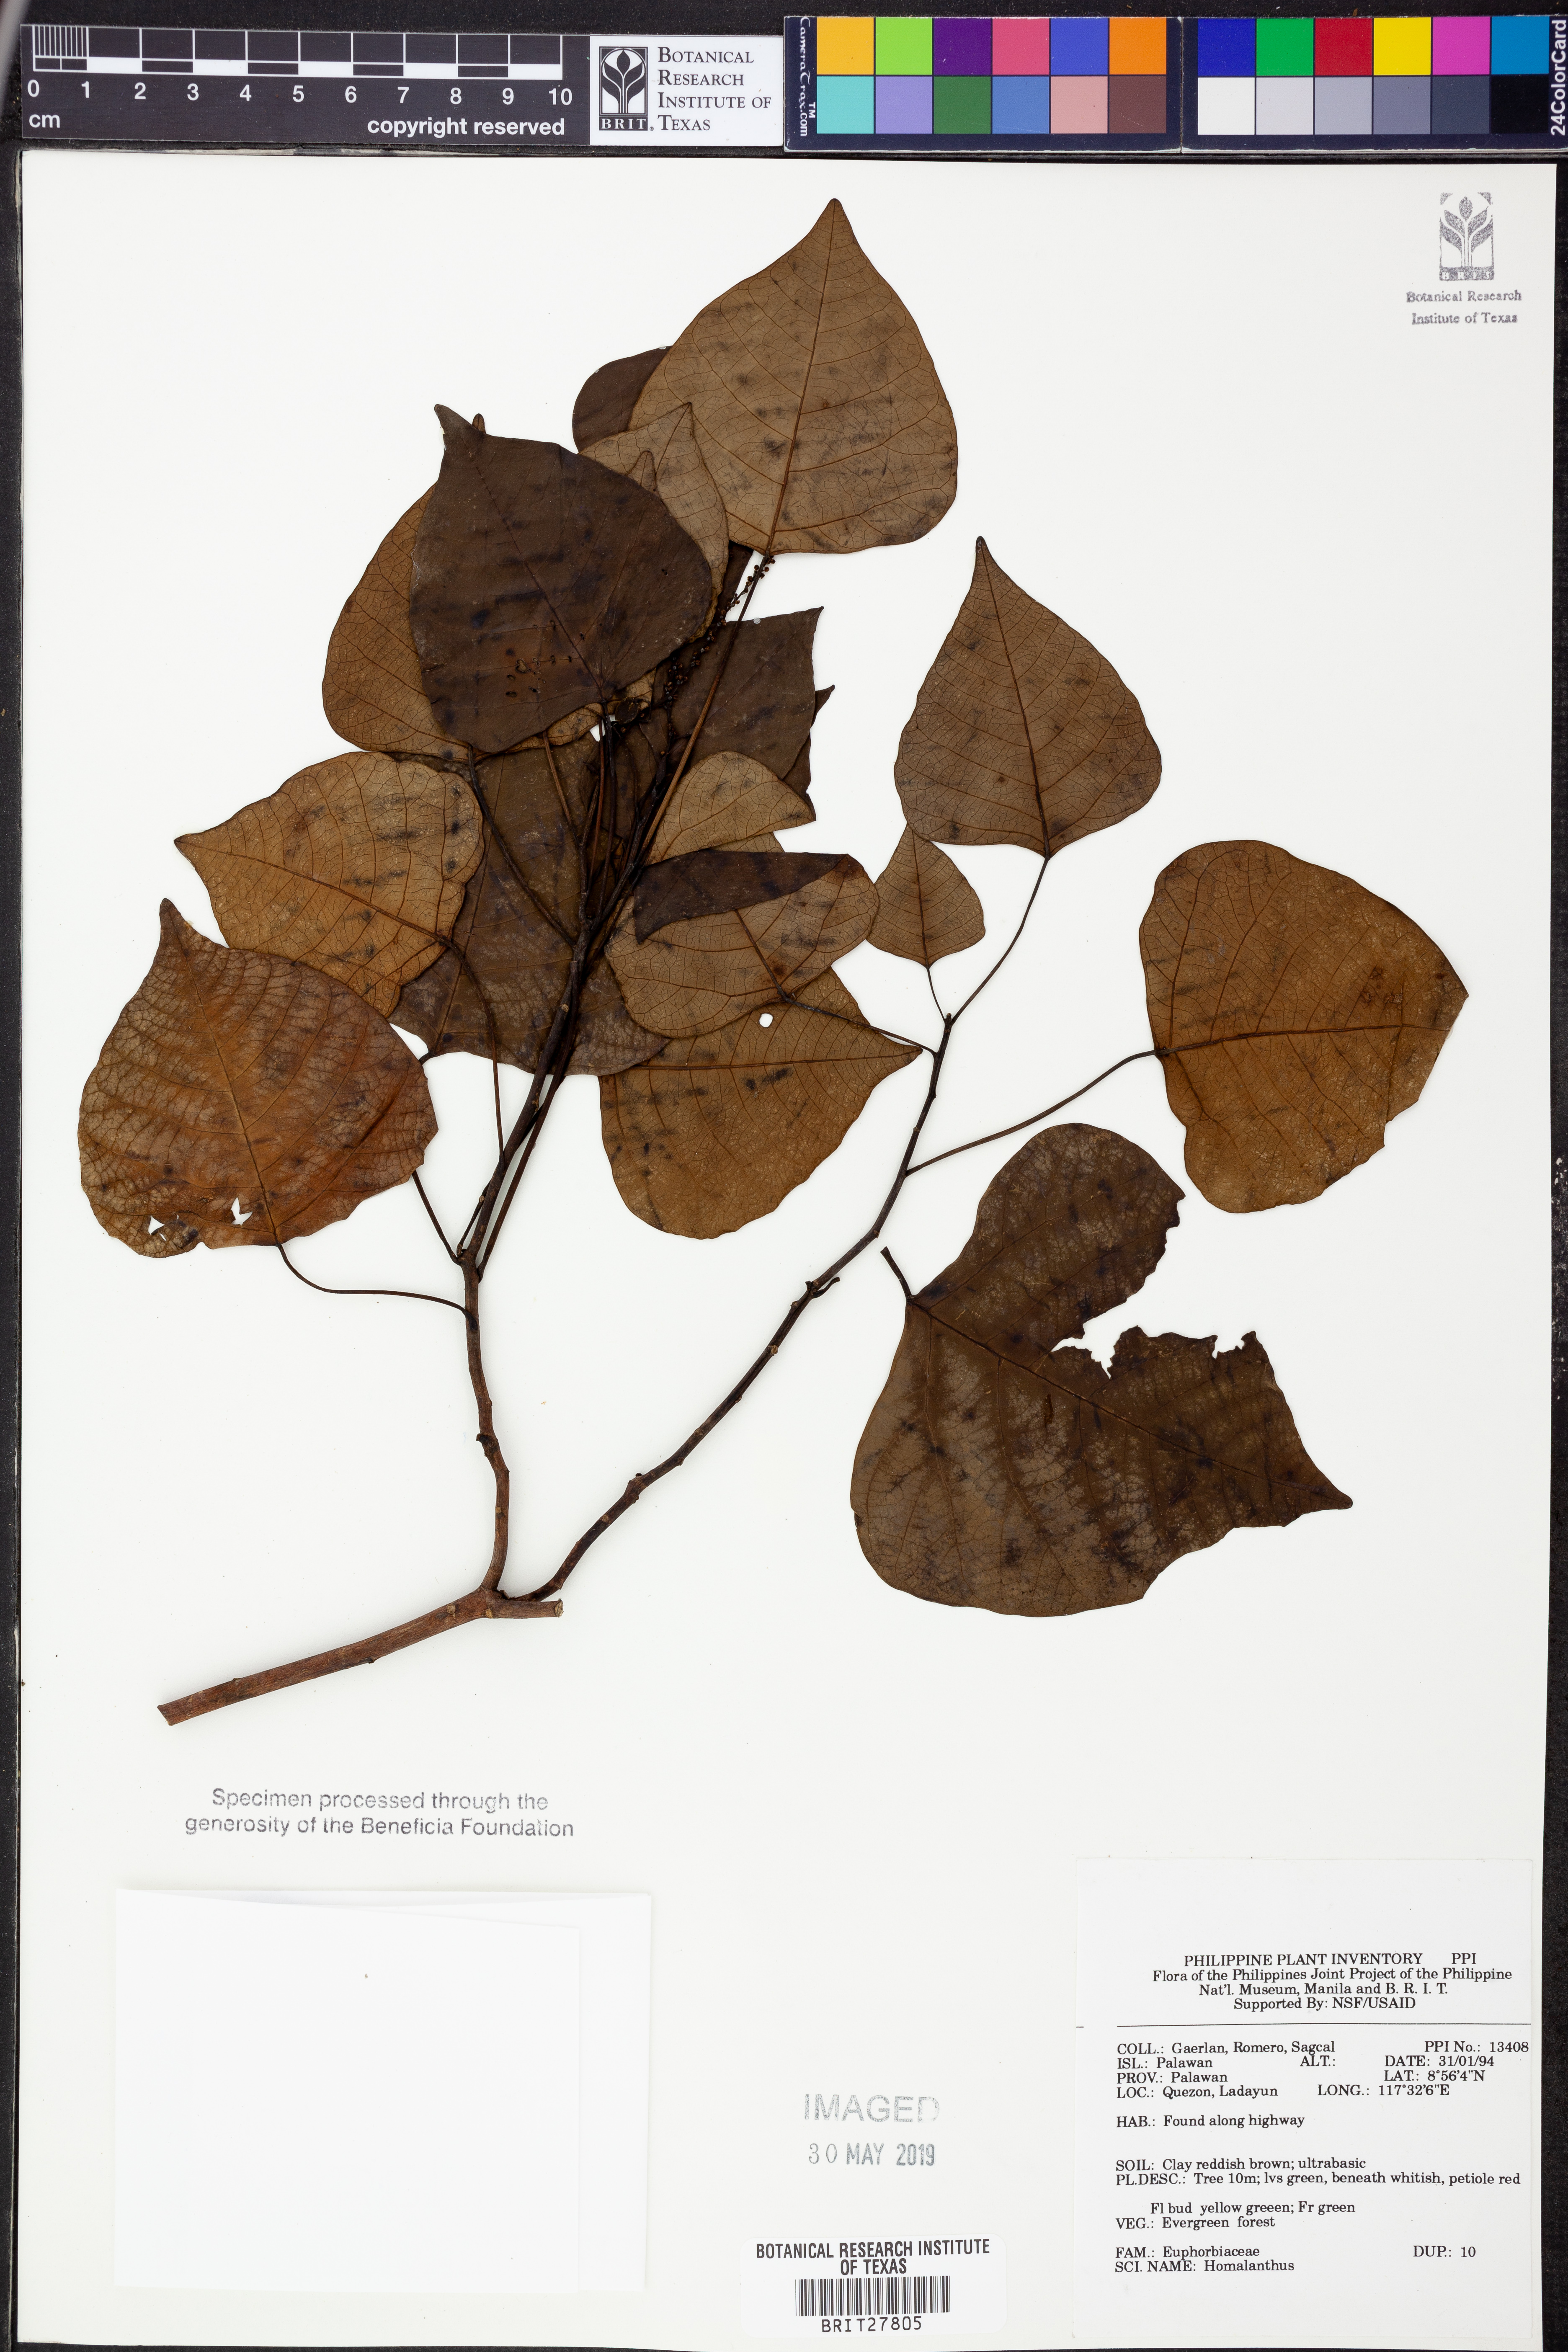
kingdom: Plantae
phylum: Tracheophyta
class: Magnoliopsida
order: Malpighiales
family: Euphorbiaceae
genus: Homalanthus
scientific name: Homalanthus
